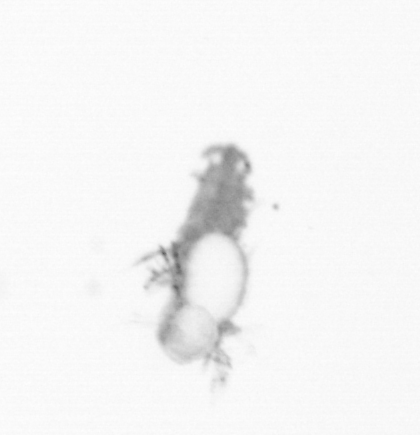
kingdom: Animalia
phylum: Annelida
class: Polychaeta
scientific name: Polychaeta
